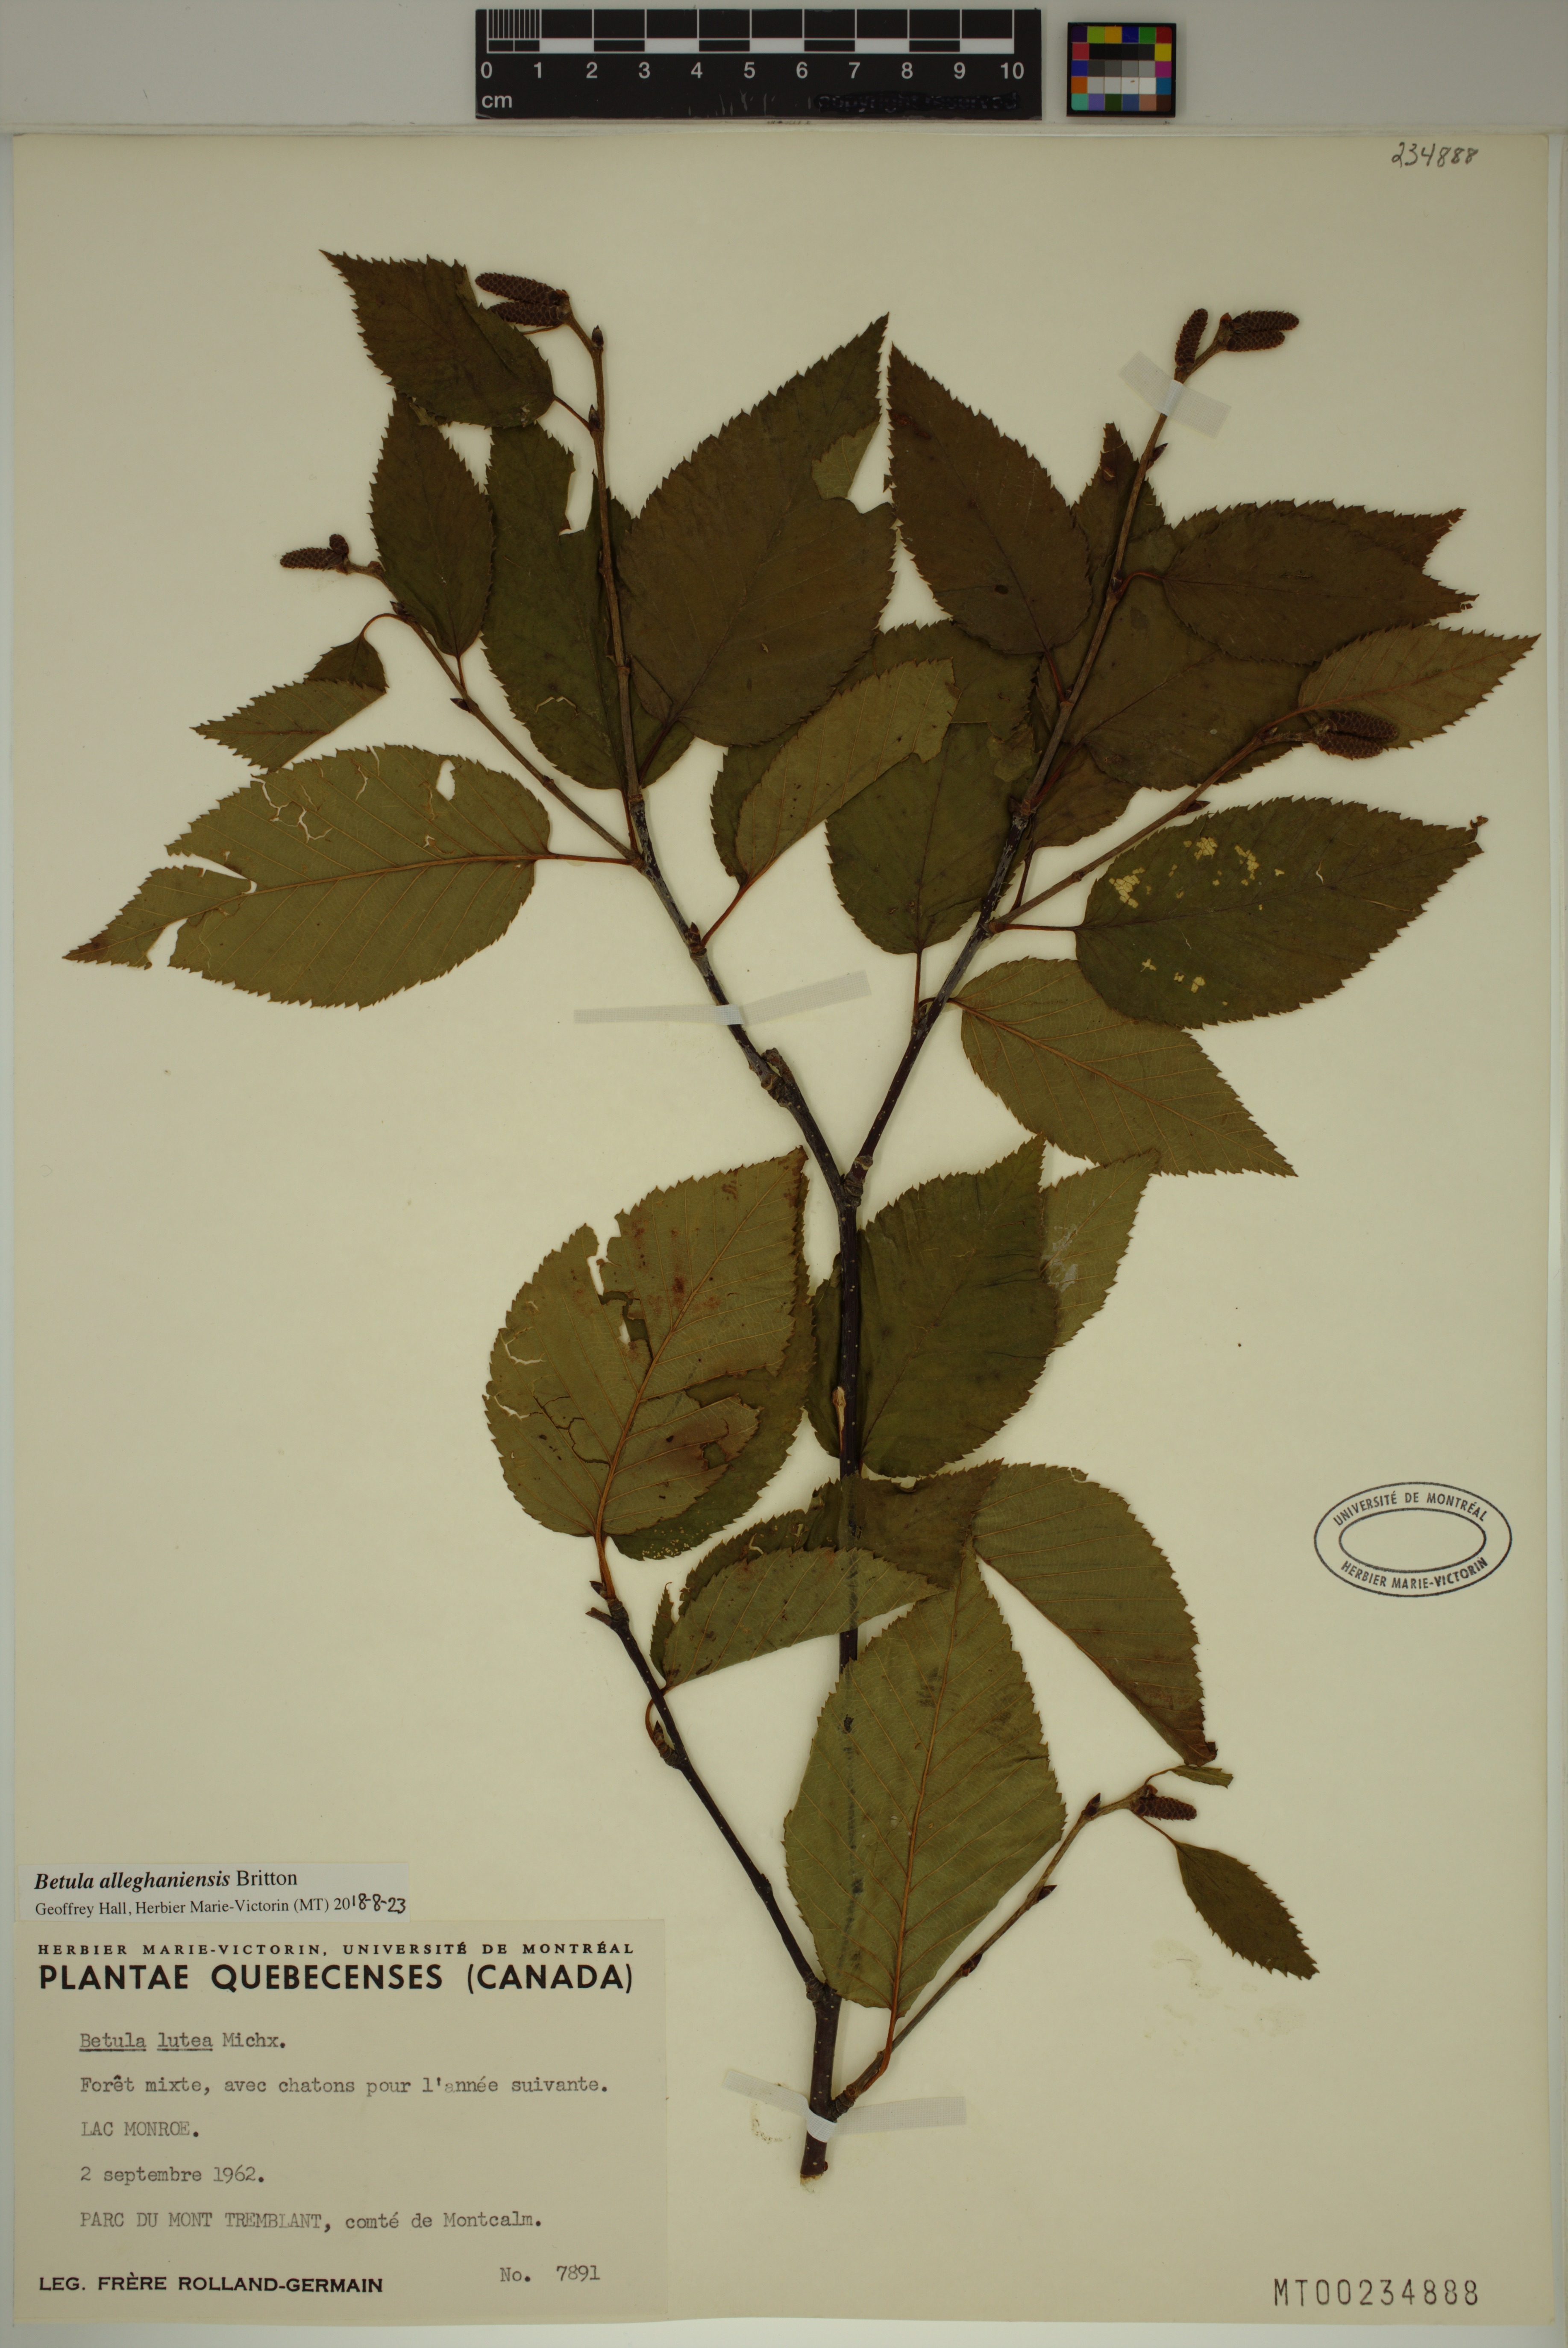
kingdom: Plantae
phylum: Tracheophyta
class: Magnoliopsida
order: Fagales
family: Betulaceae
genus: Betula
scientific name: Betula alleghaniensis
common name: Yellow birch
